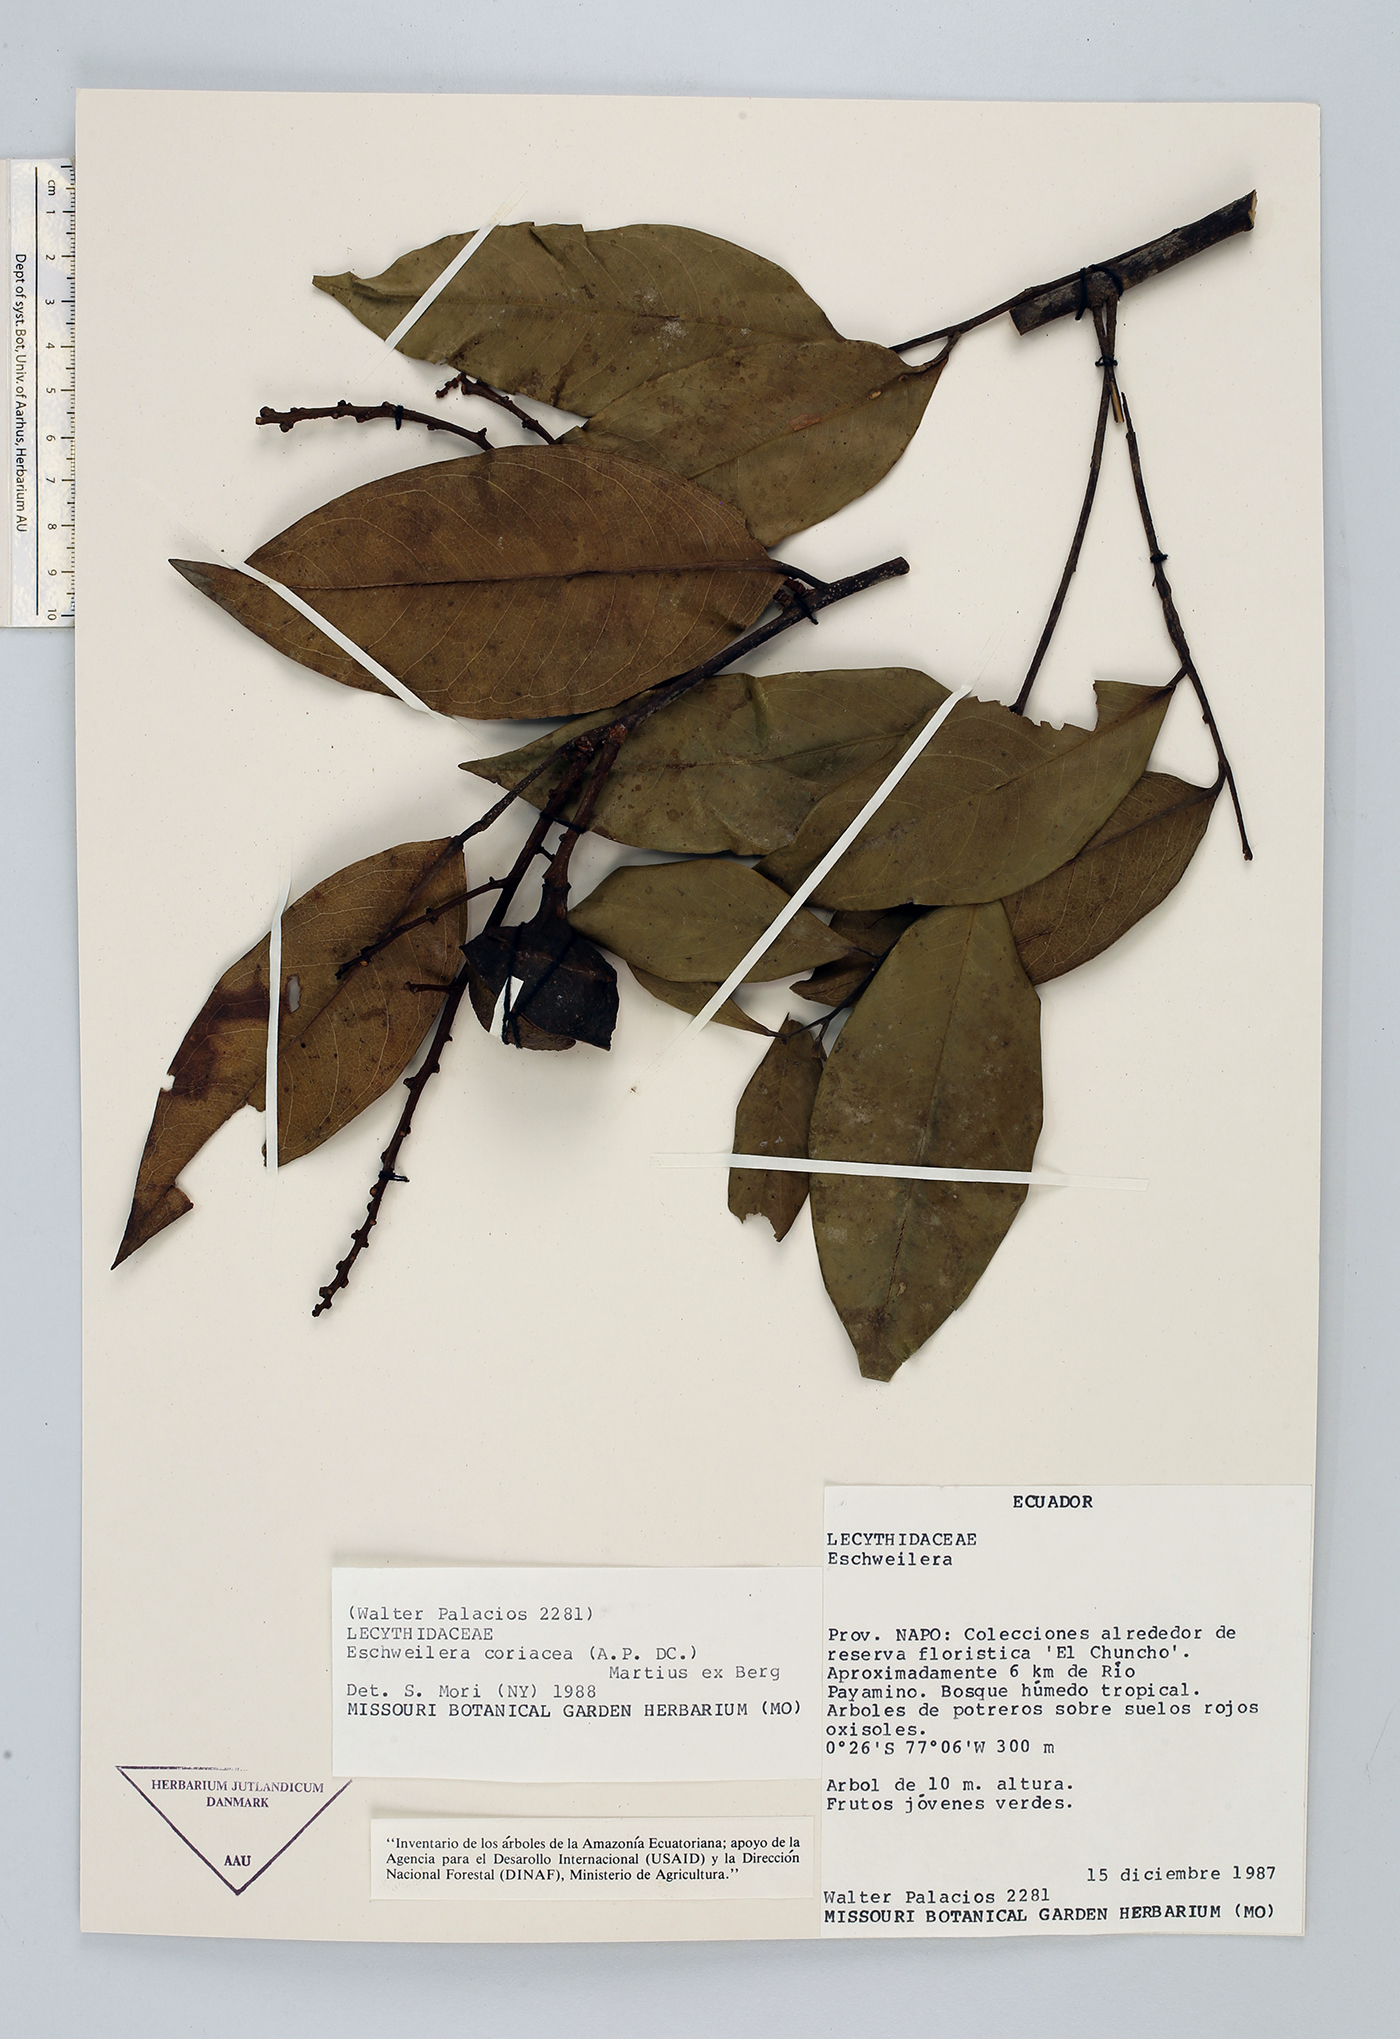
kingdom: Plantae
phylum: Tracheophyta
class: Magnoliopsida
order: Ericales
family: Lecythidaceae
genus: Eschweilera
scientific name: Eschweilera coriacea
